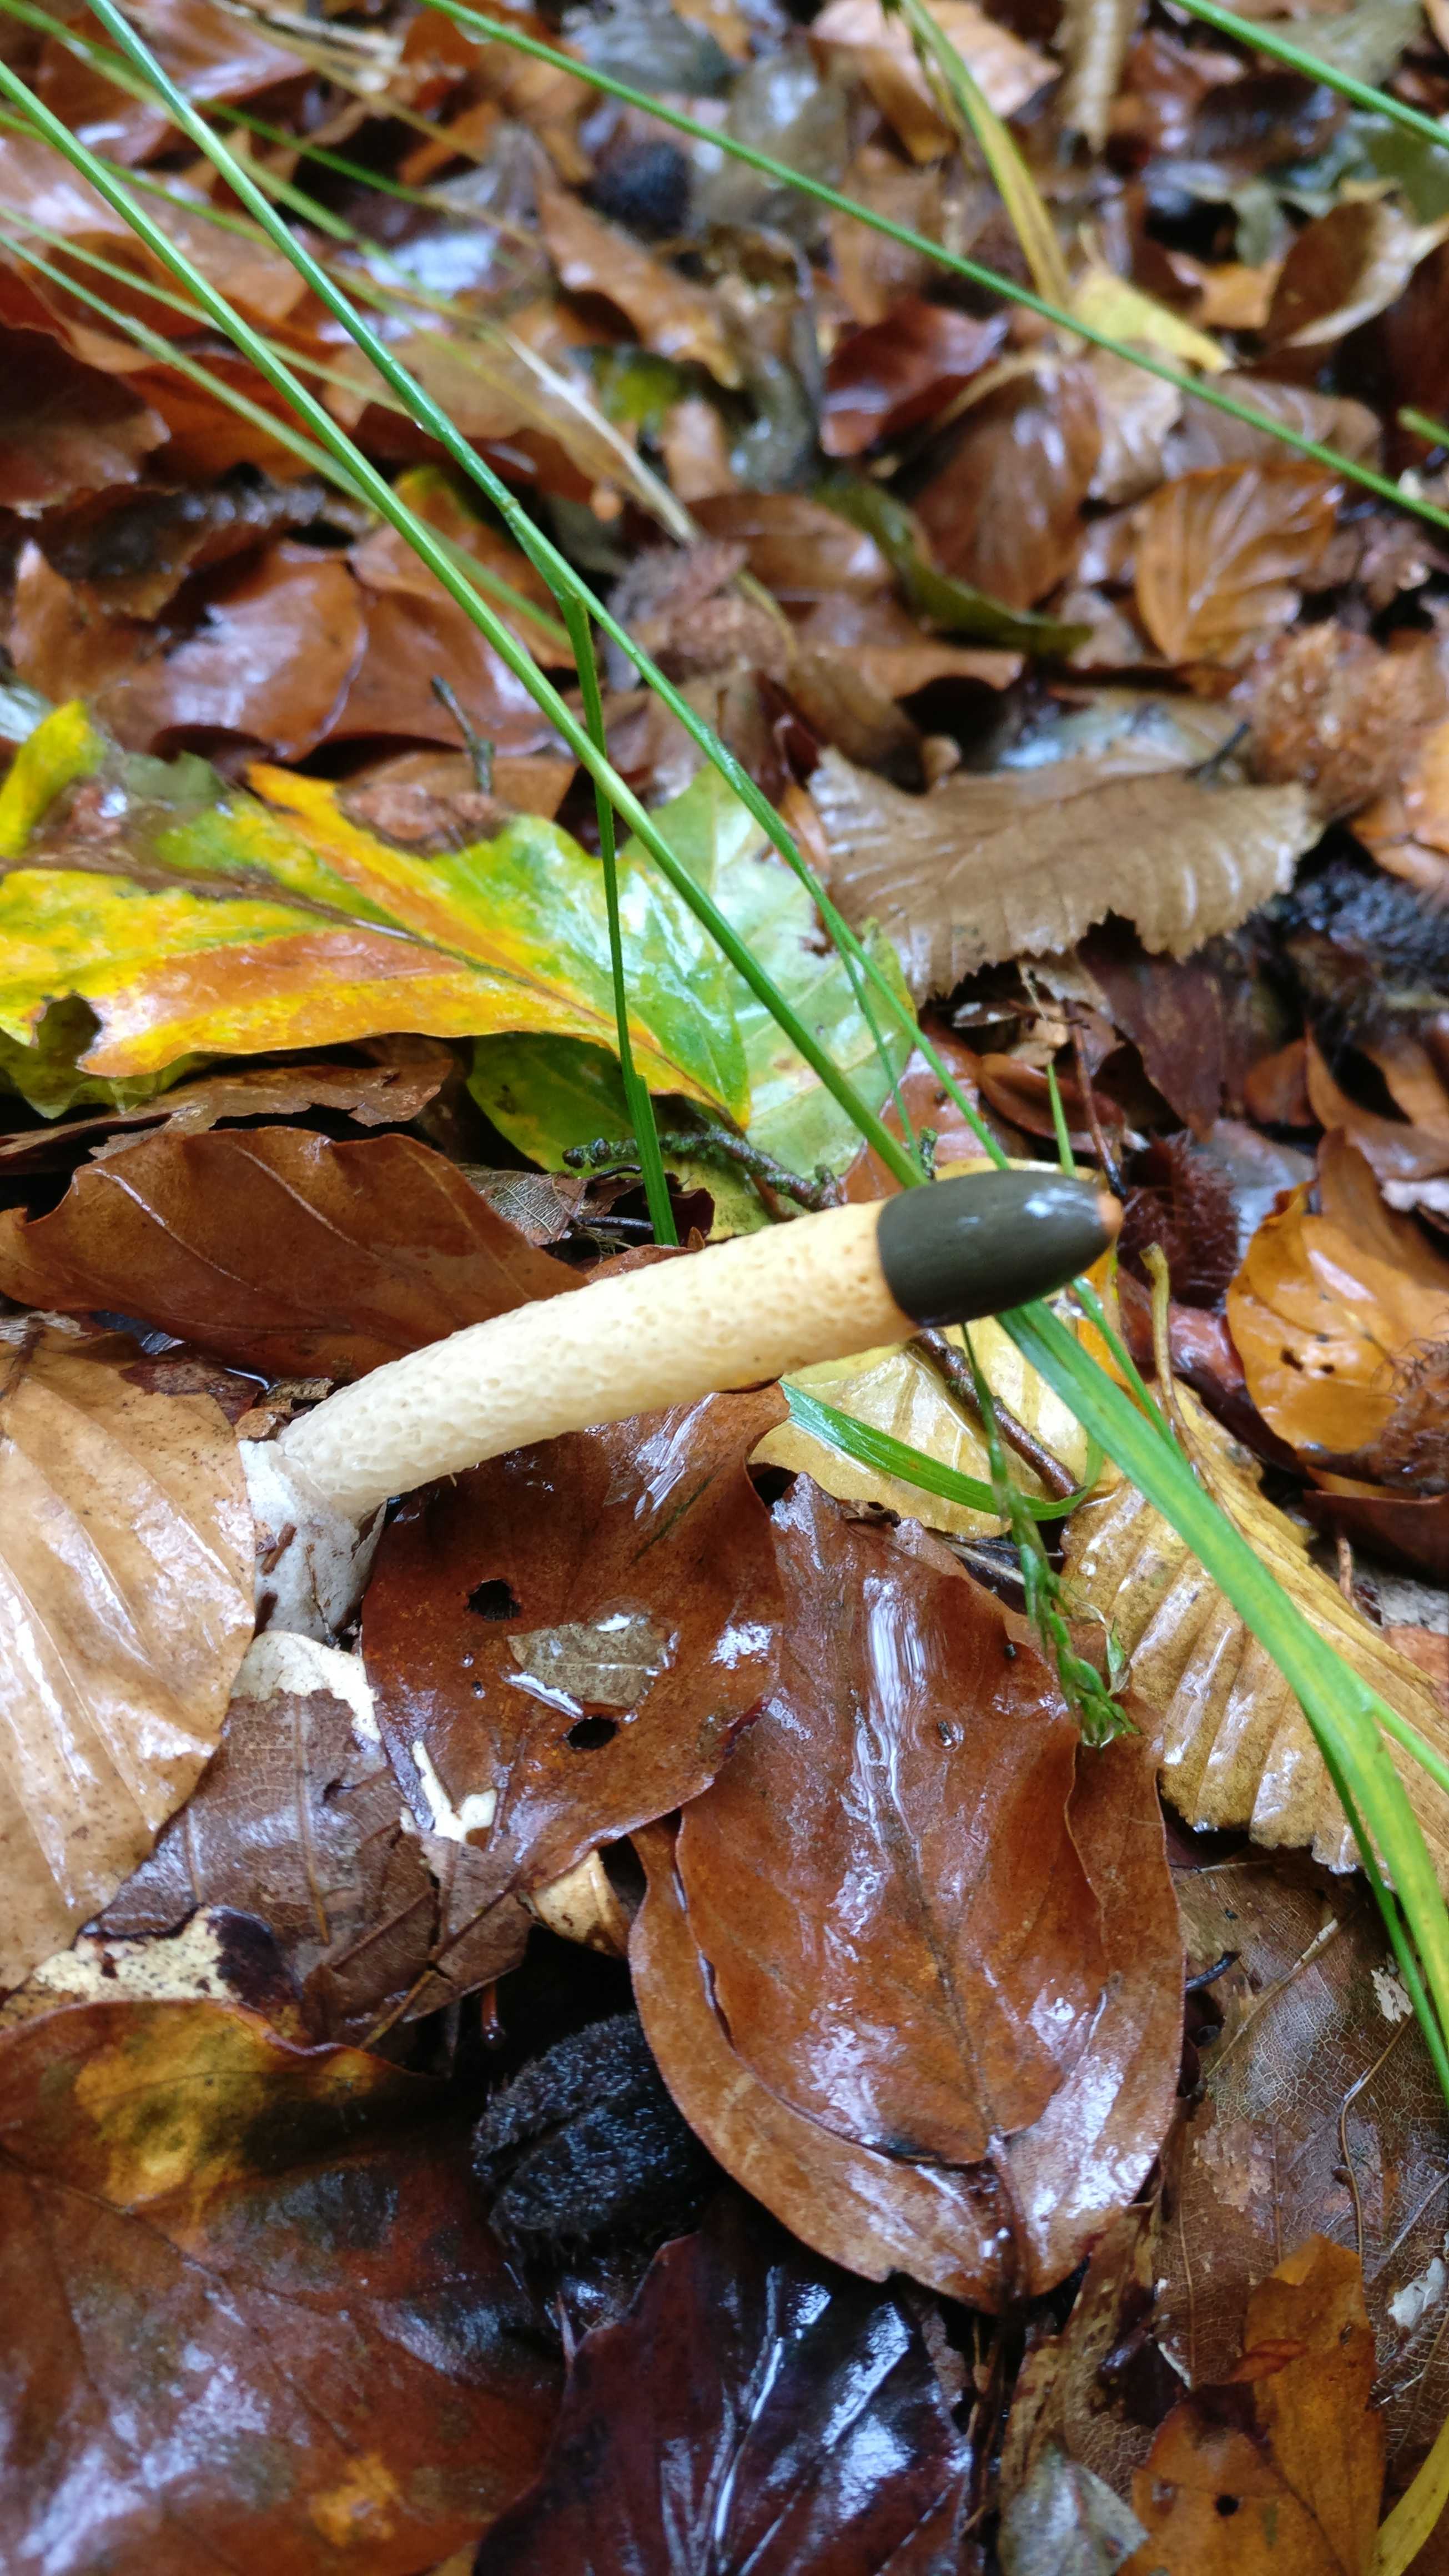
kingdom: Fungi
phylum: Basidiomycota
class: Agaricomycetes
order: Phallales
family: Phallaceae
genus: Mutinus
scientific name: Mutinus caninus
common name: hunde-stinksvamp
